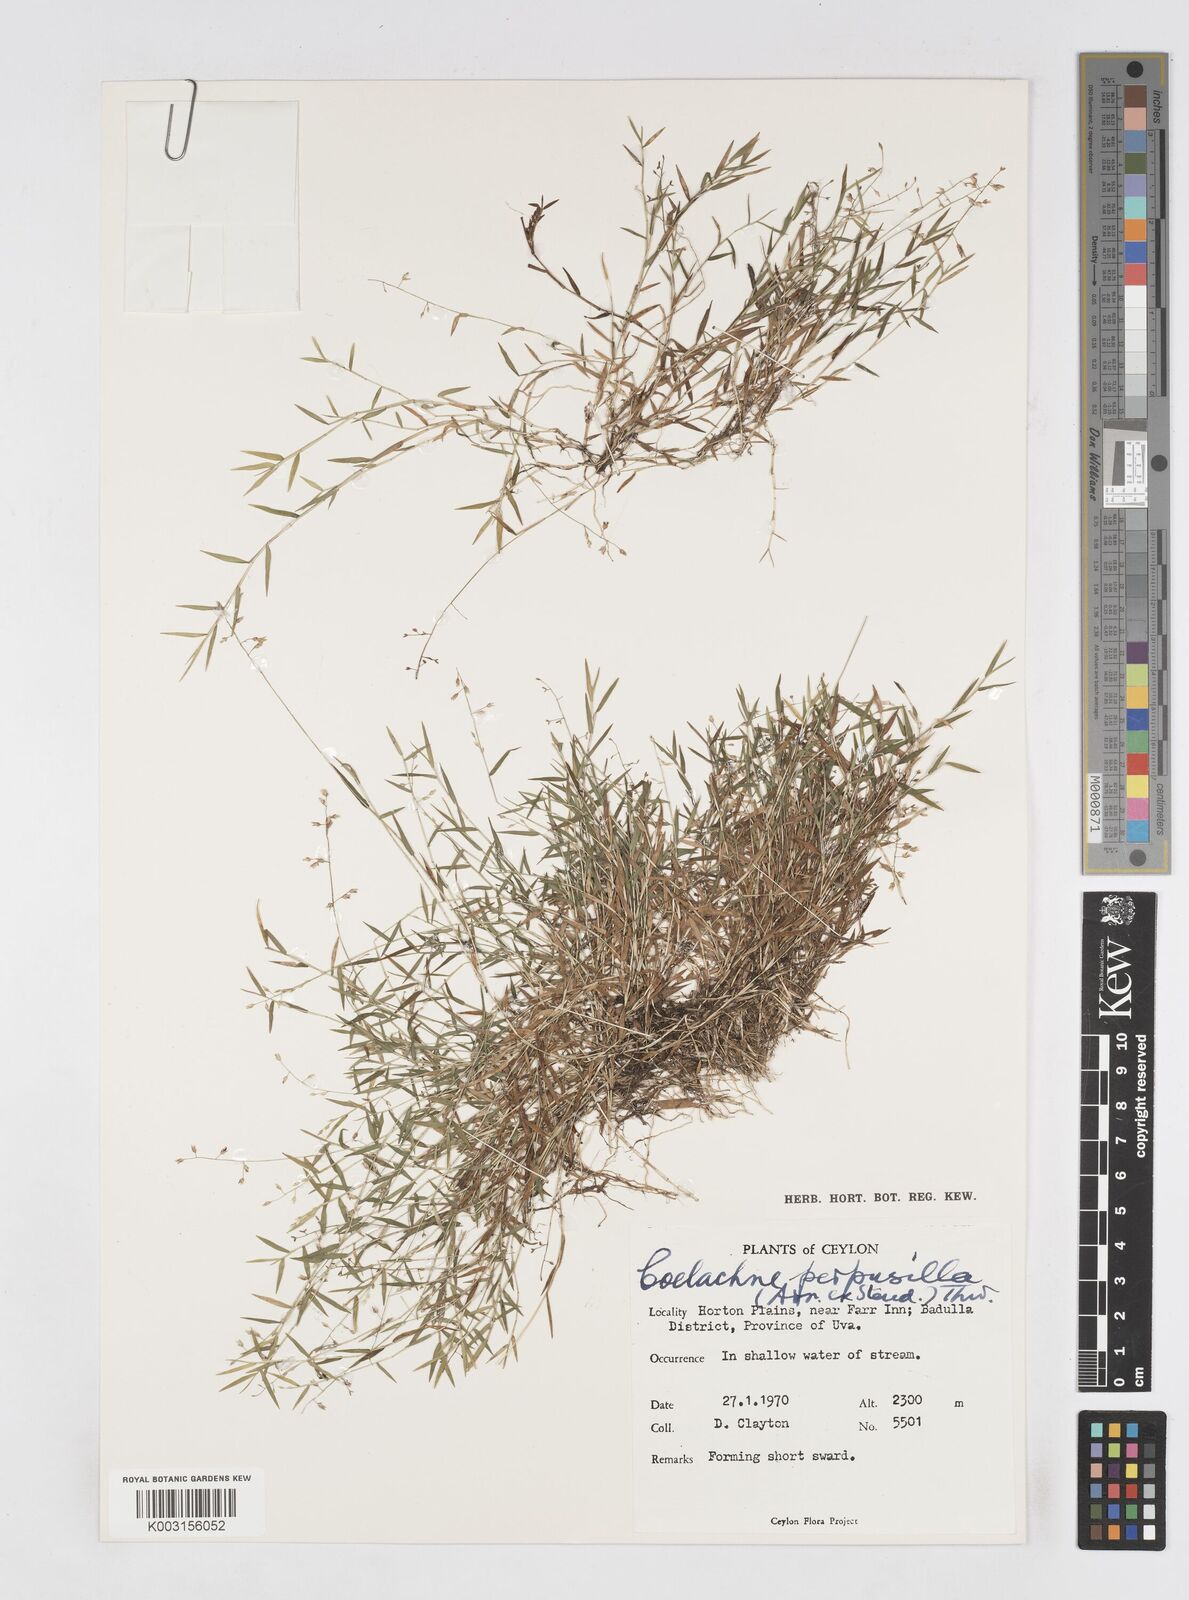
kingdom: Plantae
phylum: Tracheophyta
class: Liliopsida
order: Poales
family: Poaceae
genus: Coelachne
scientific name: Coelachne perpusilla
